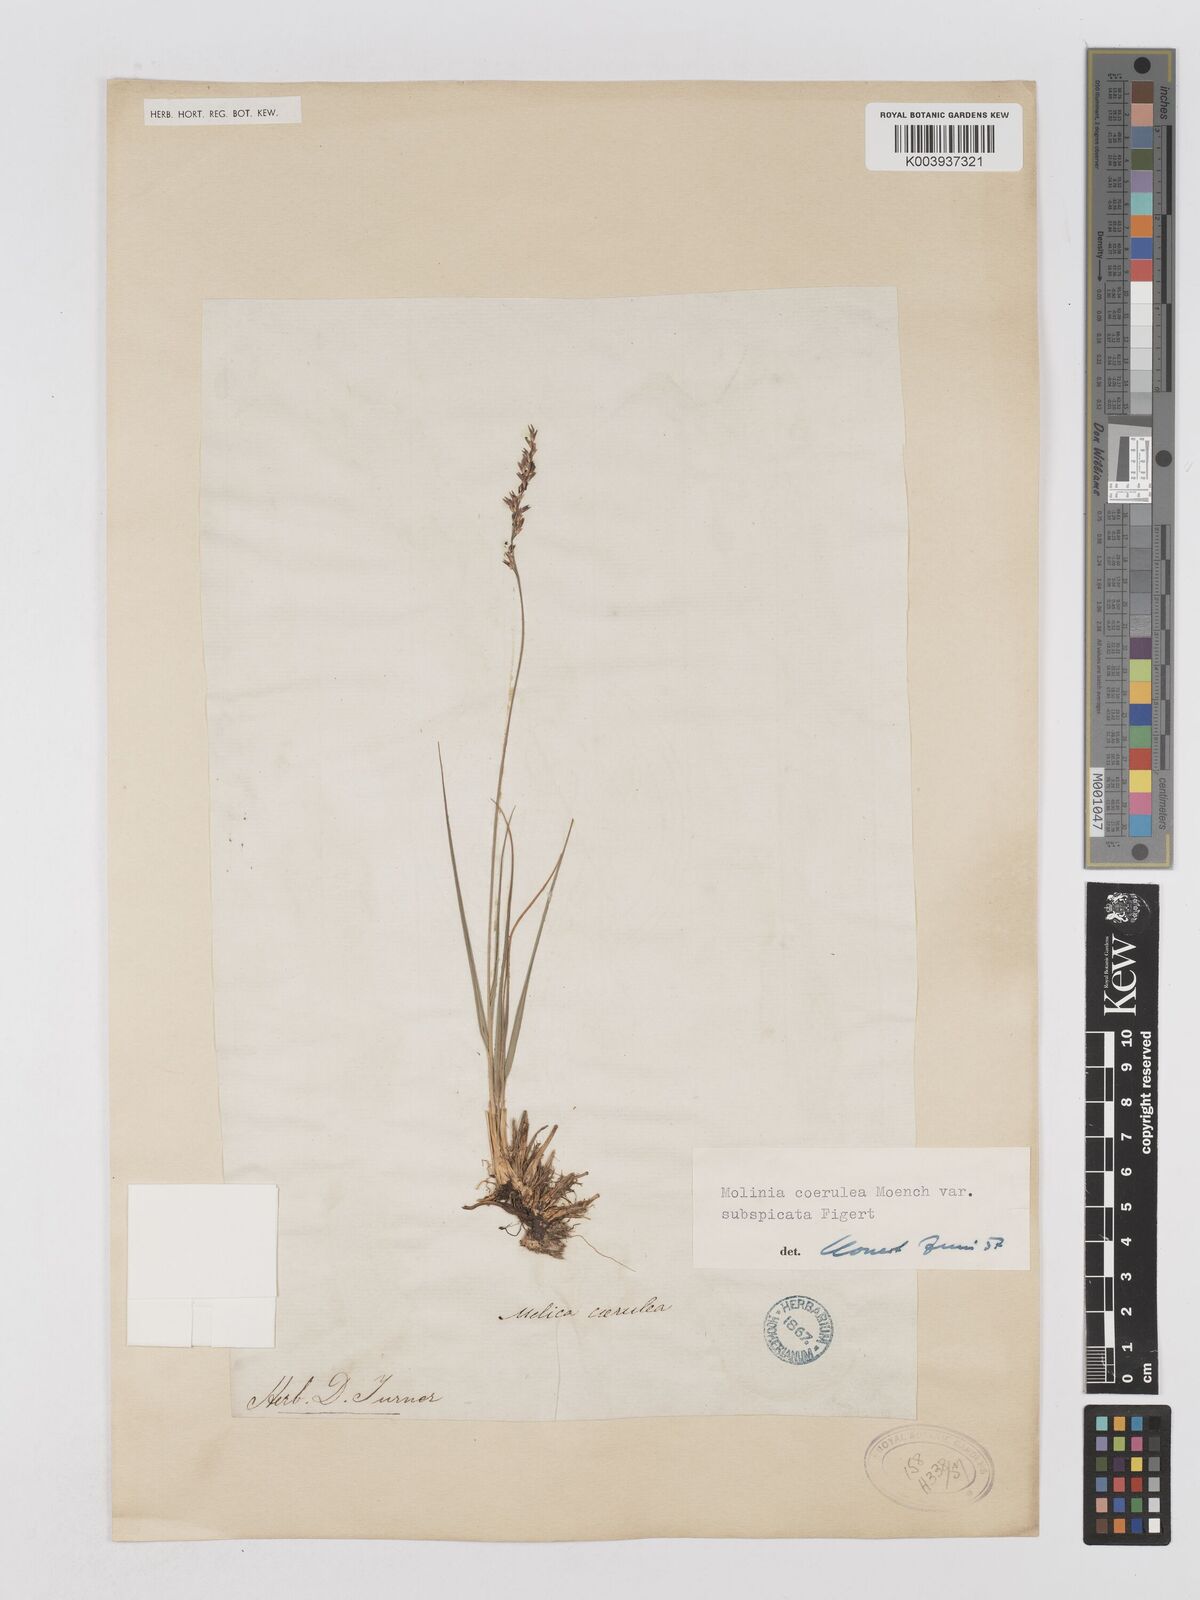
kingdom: Plantae
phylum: Tracheophyta
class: Liliopsida
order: Poales
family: Poaceae
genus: Molinia
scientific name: Molinia caerulea
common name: Purple moor-grass
